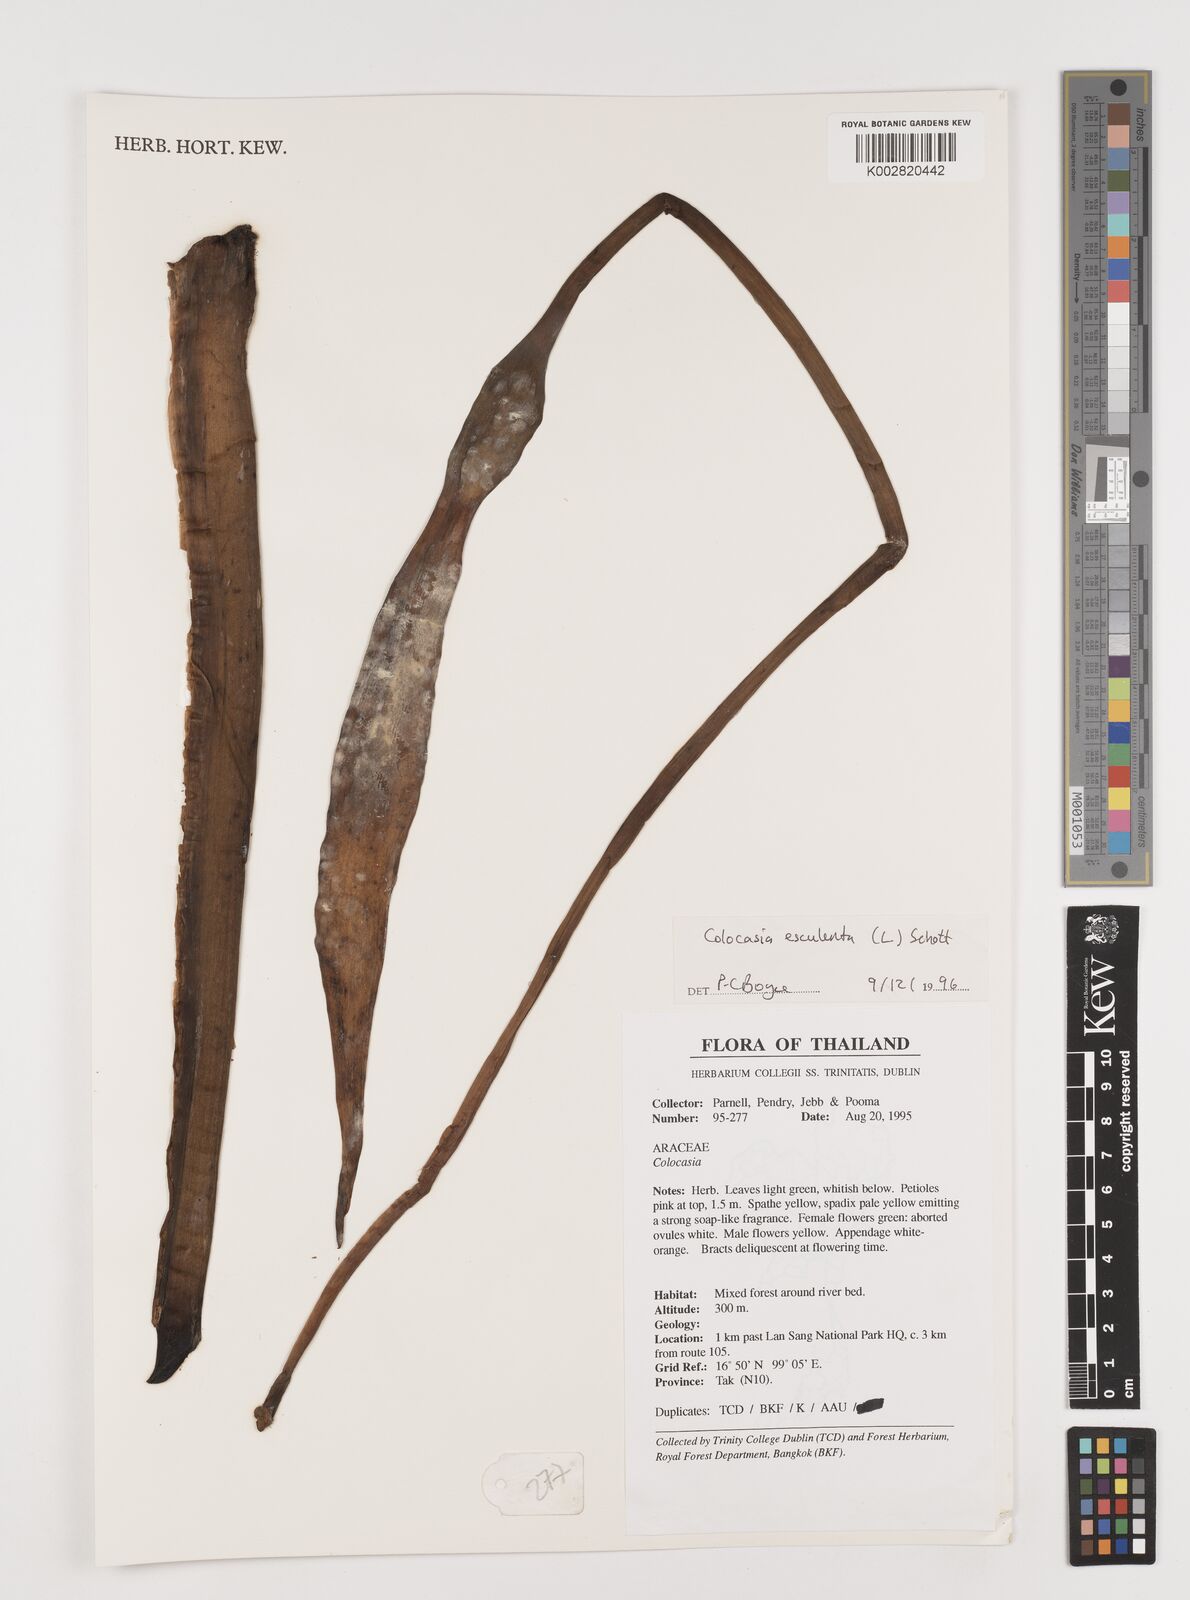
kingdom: Plantae
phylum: Tracheophyta
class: Liliopsida
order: Alismatales
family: Araceae
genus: Colocasia
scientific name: Colocasia esculenta
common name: Taro
